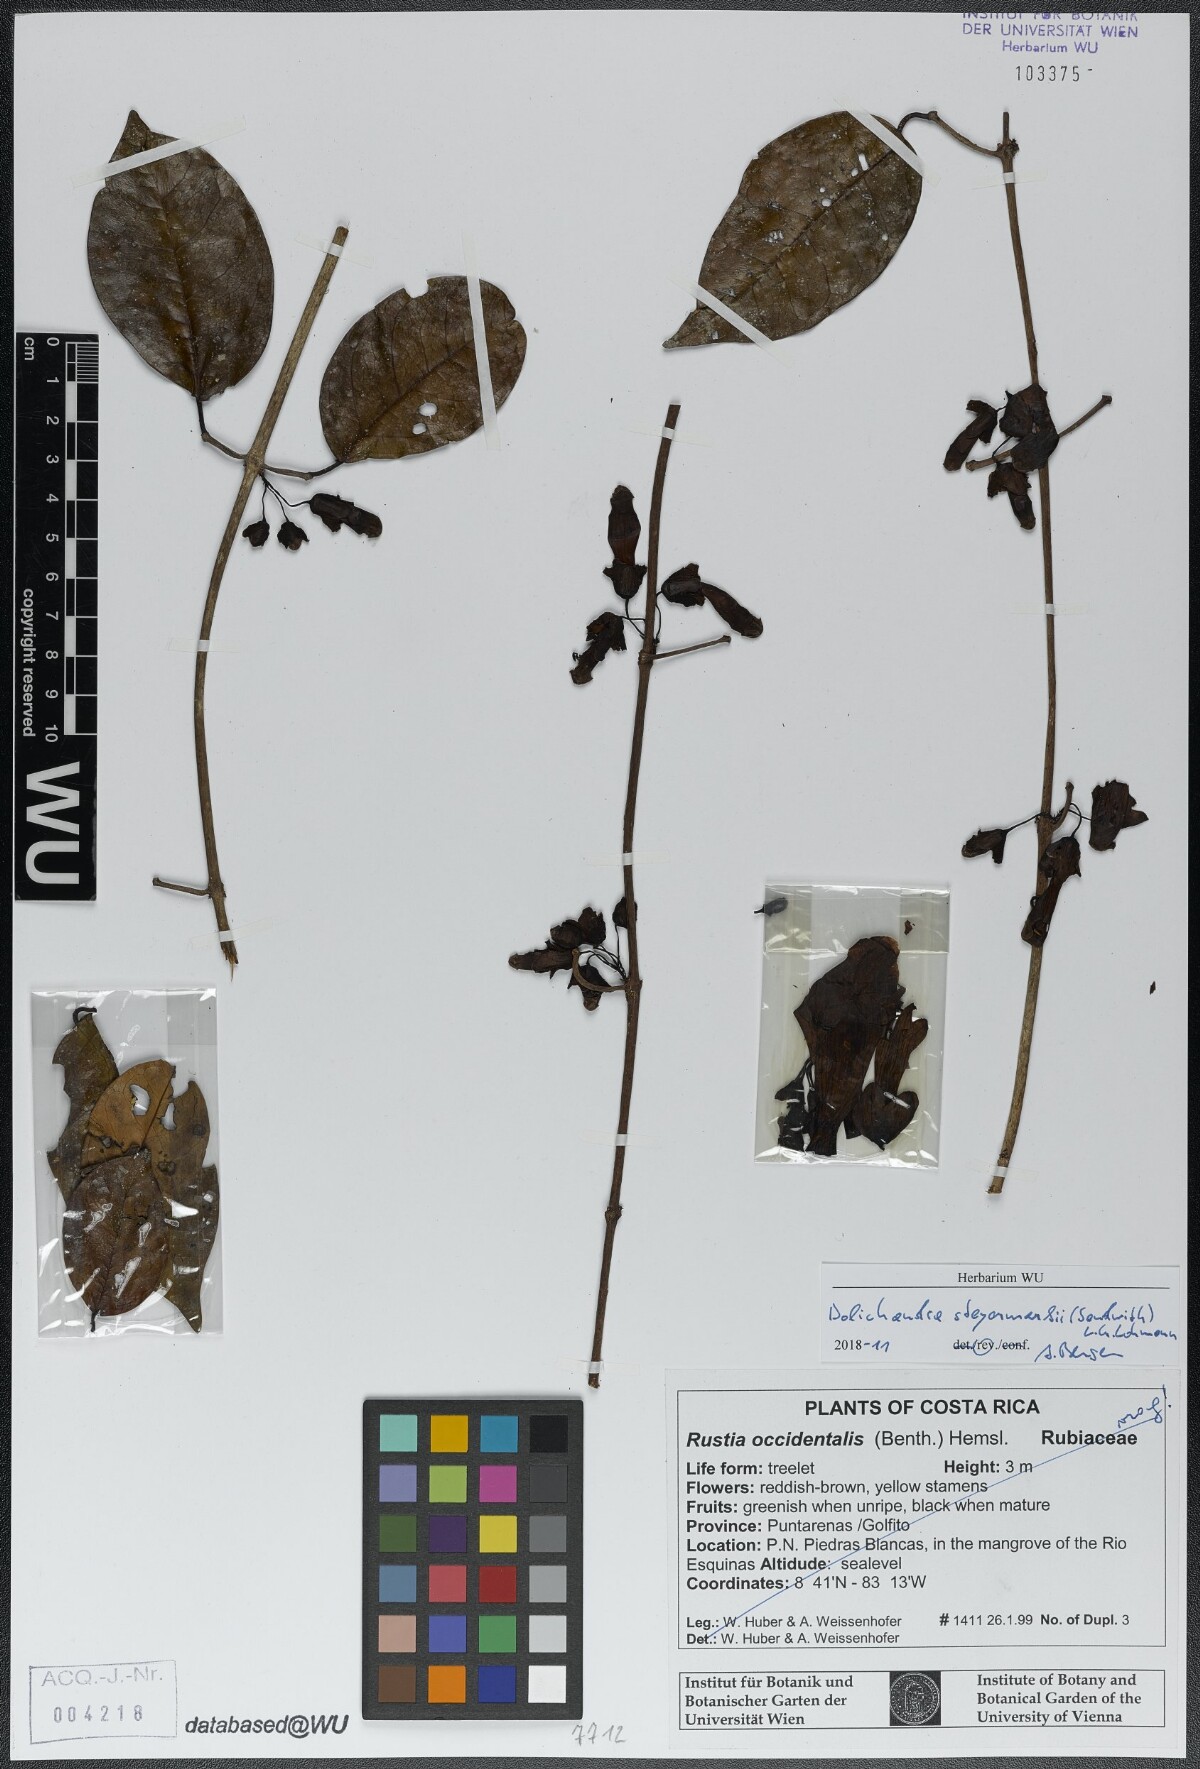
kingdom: Plantae
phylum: Tracheophyta
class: Magnoliopsida
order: Lamiales
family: Bignoniaceae
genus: Dolichandra
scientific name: Dolichandra steyermarkii
